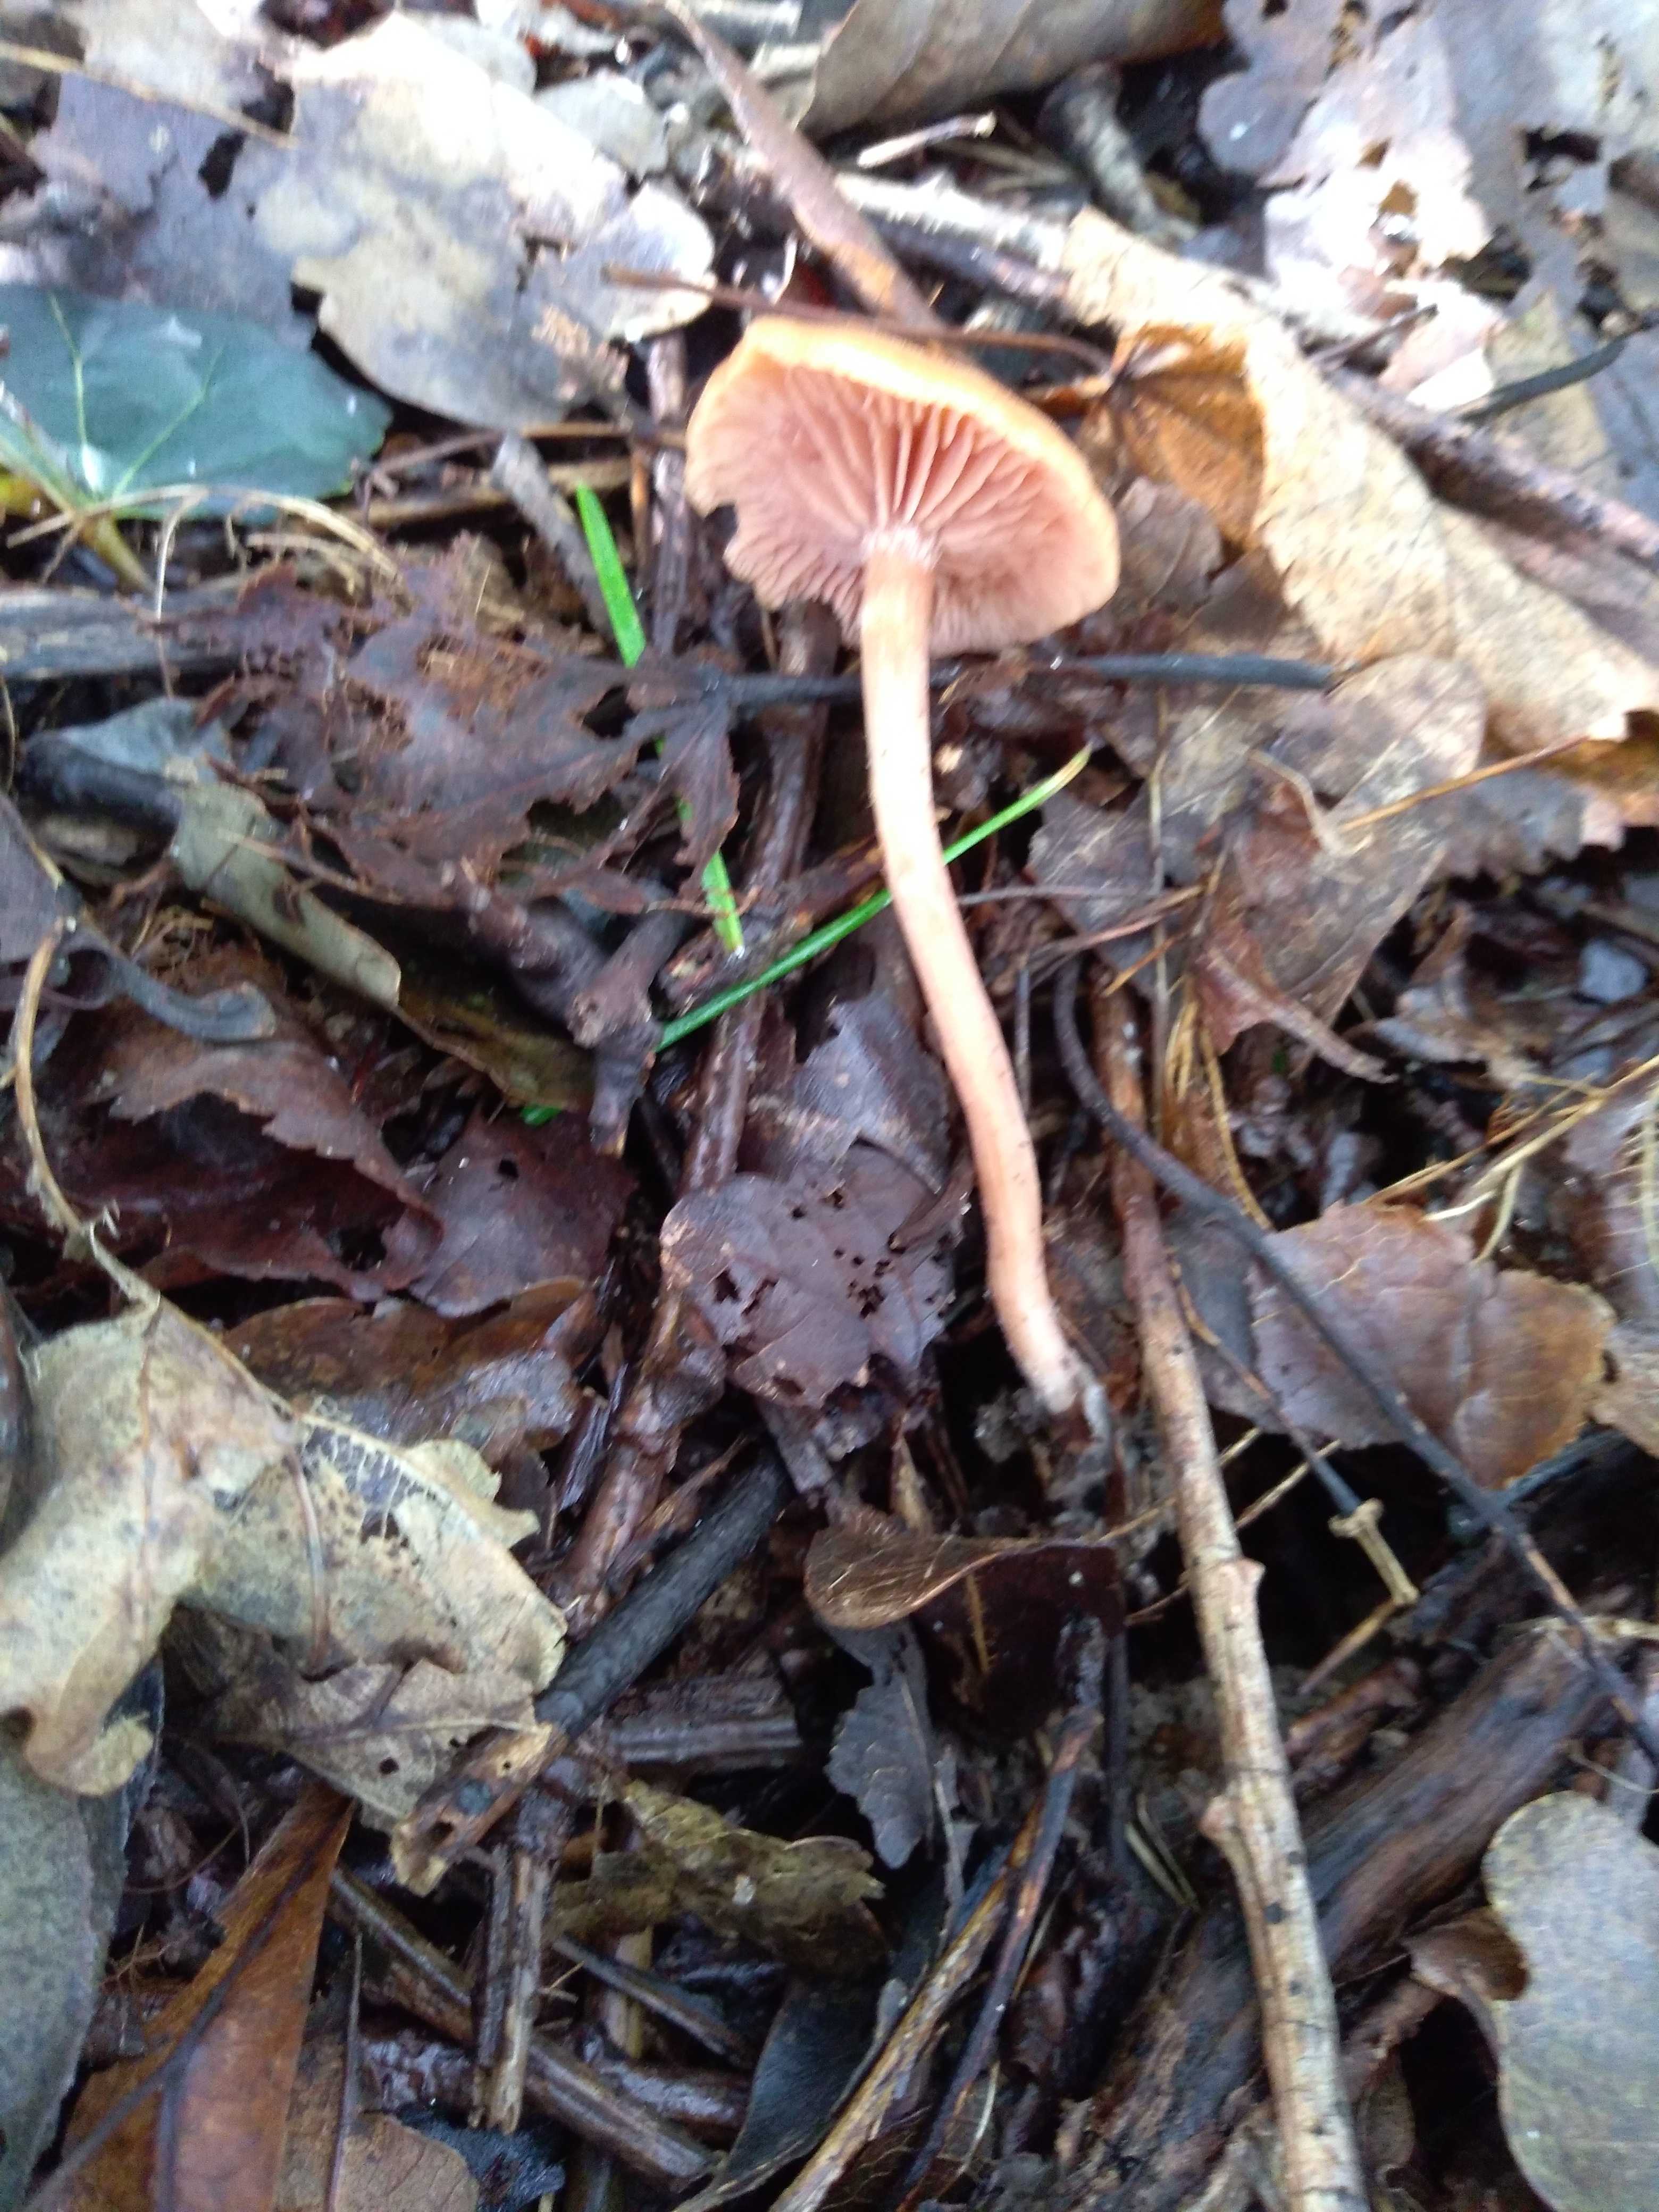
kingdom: Fungi
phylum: Basidiomycota
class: Agaricomycetes
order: Agaricales
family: Hydnangiaceae
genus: Laccaria
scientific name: Laccaria laccata
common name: rød ametysthat
